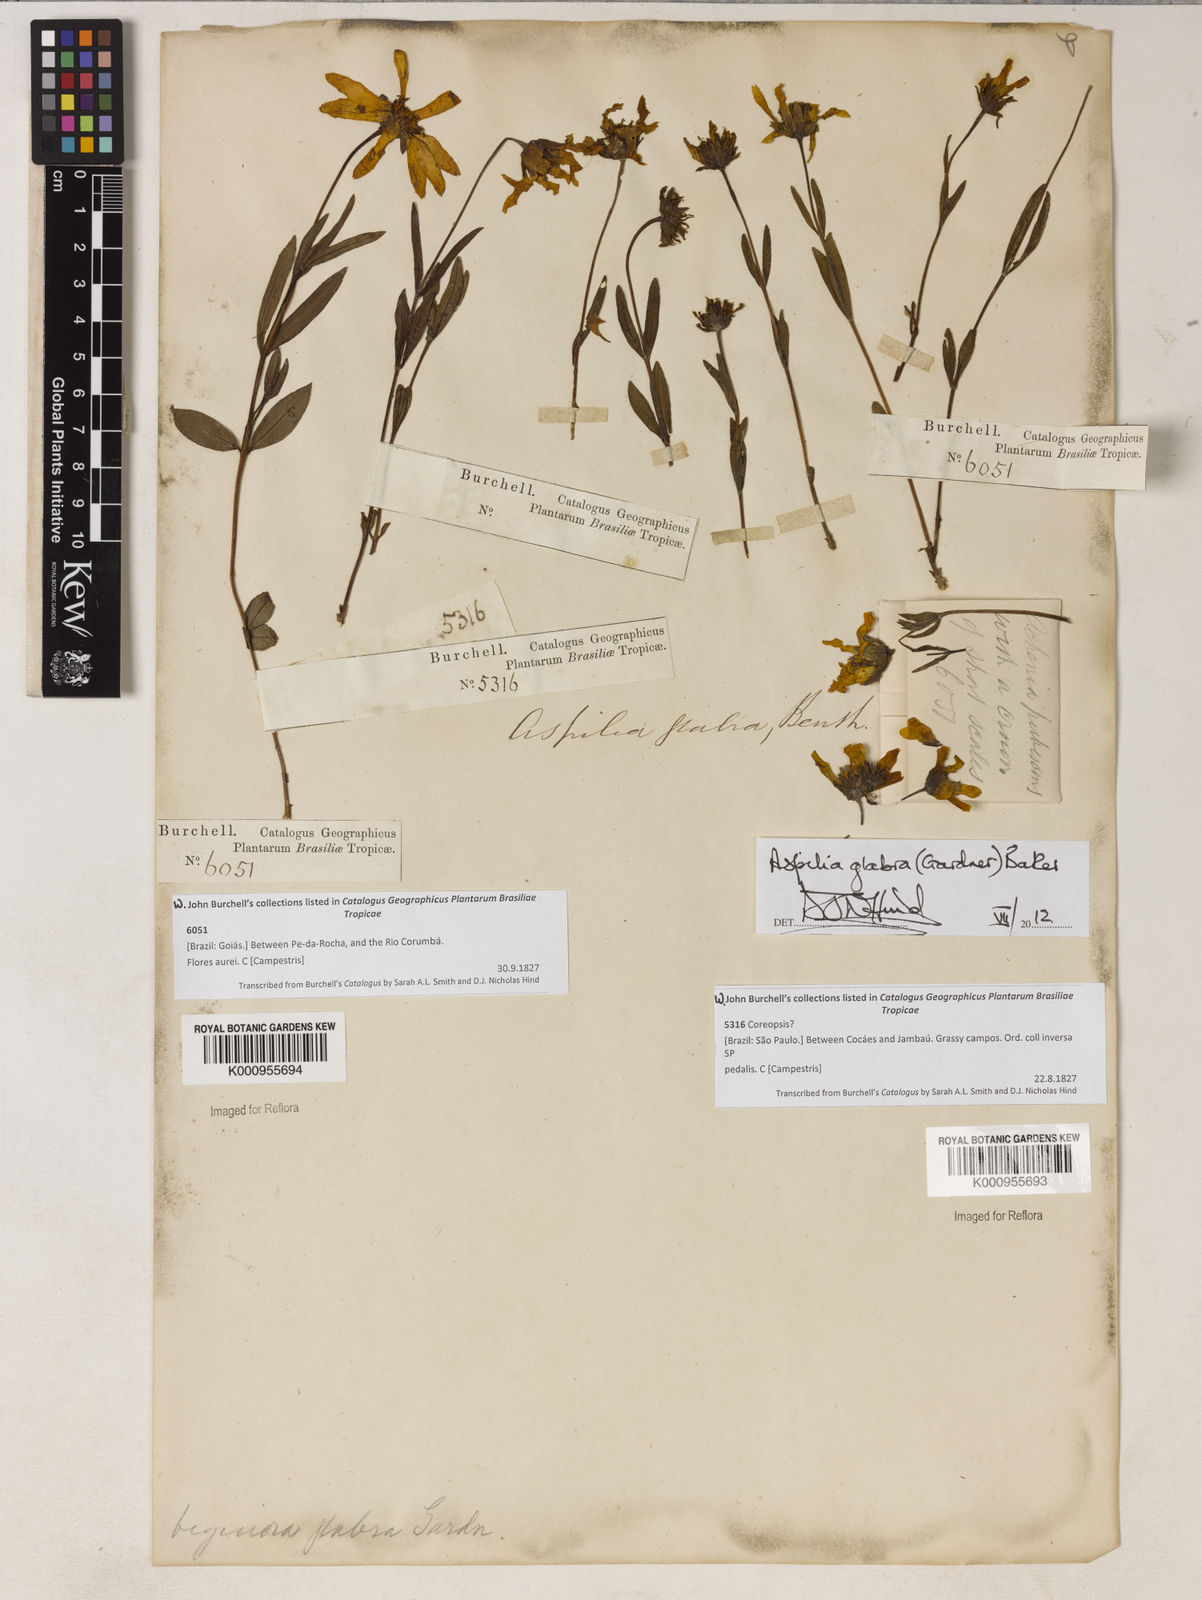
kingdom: Plantae
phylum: Tracheophyta
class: Magnoliopsida
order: Asterales
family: Asteraceae
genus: Wedelia
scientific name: Wedelia foliacea
